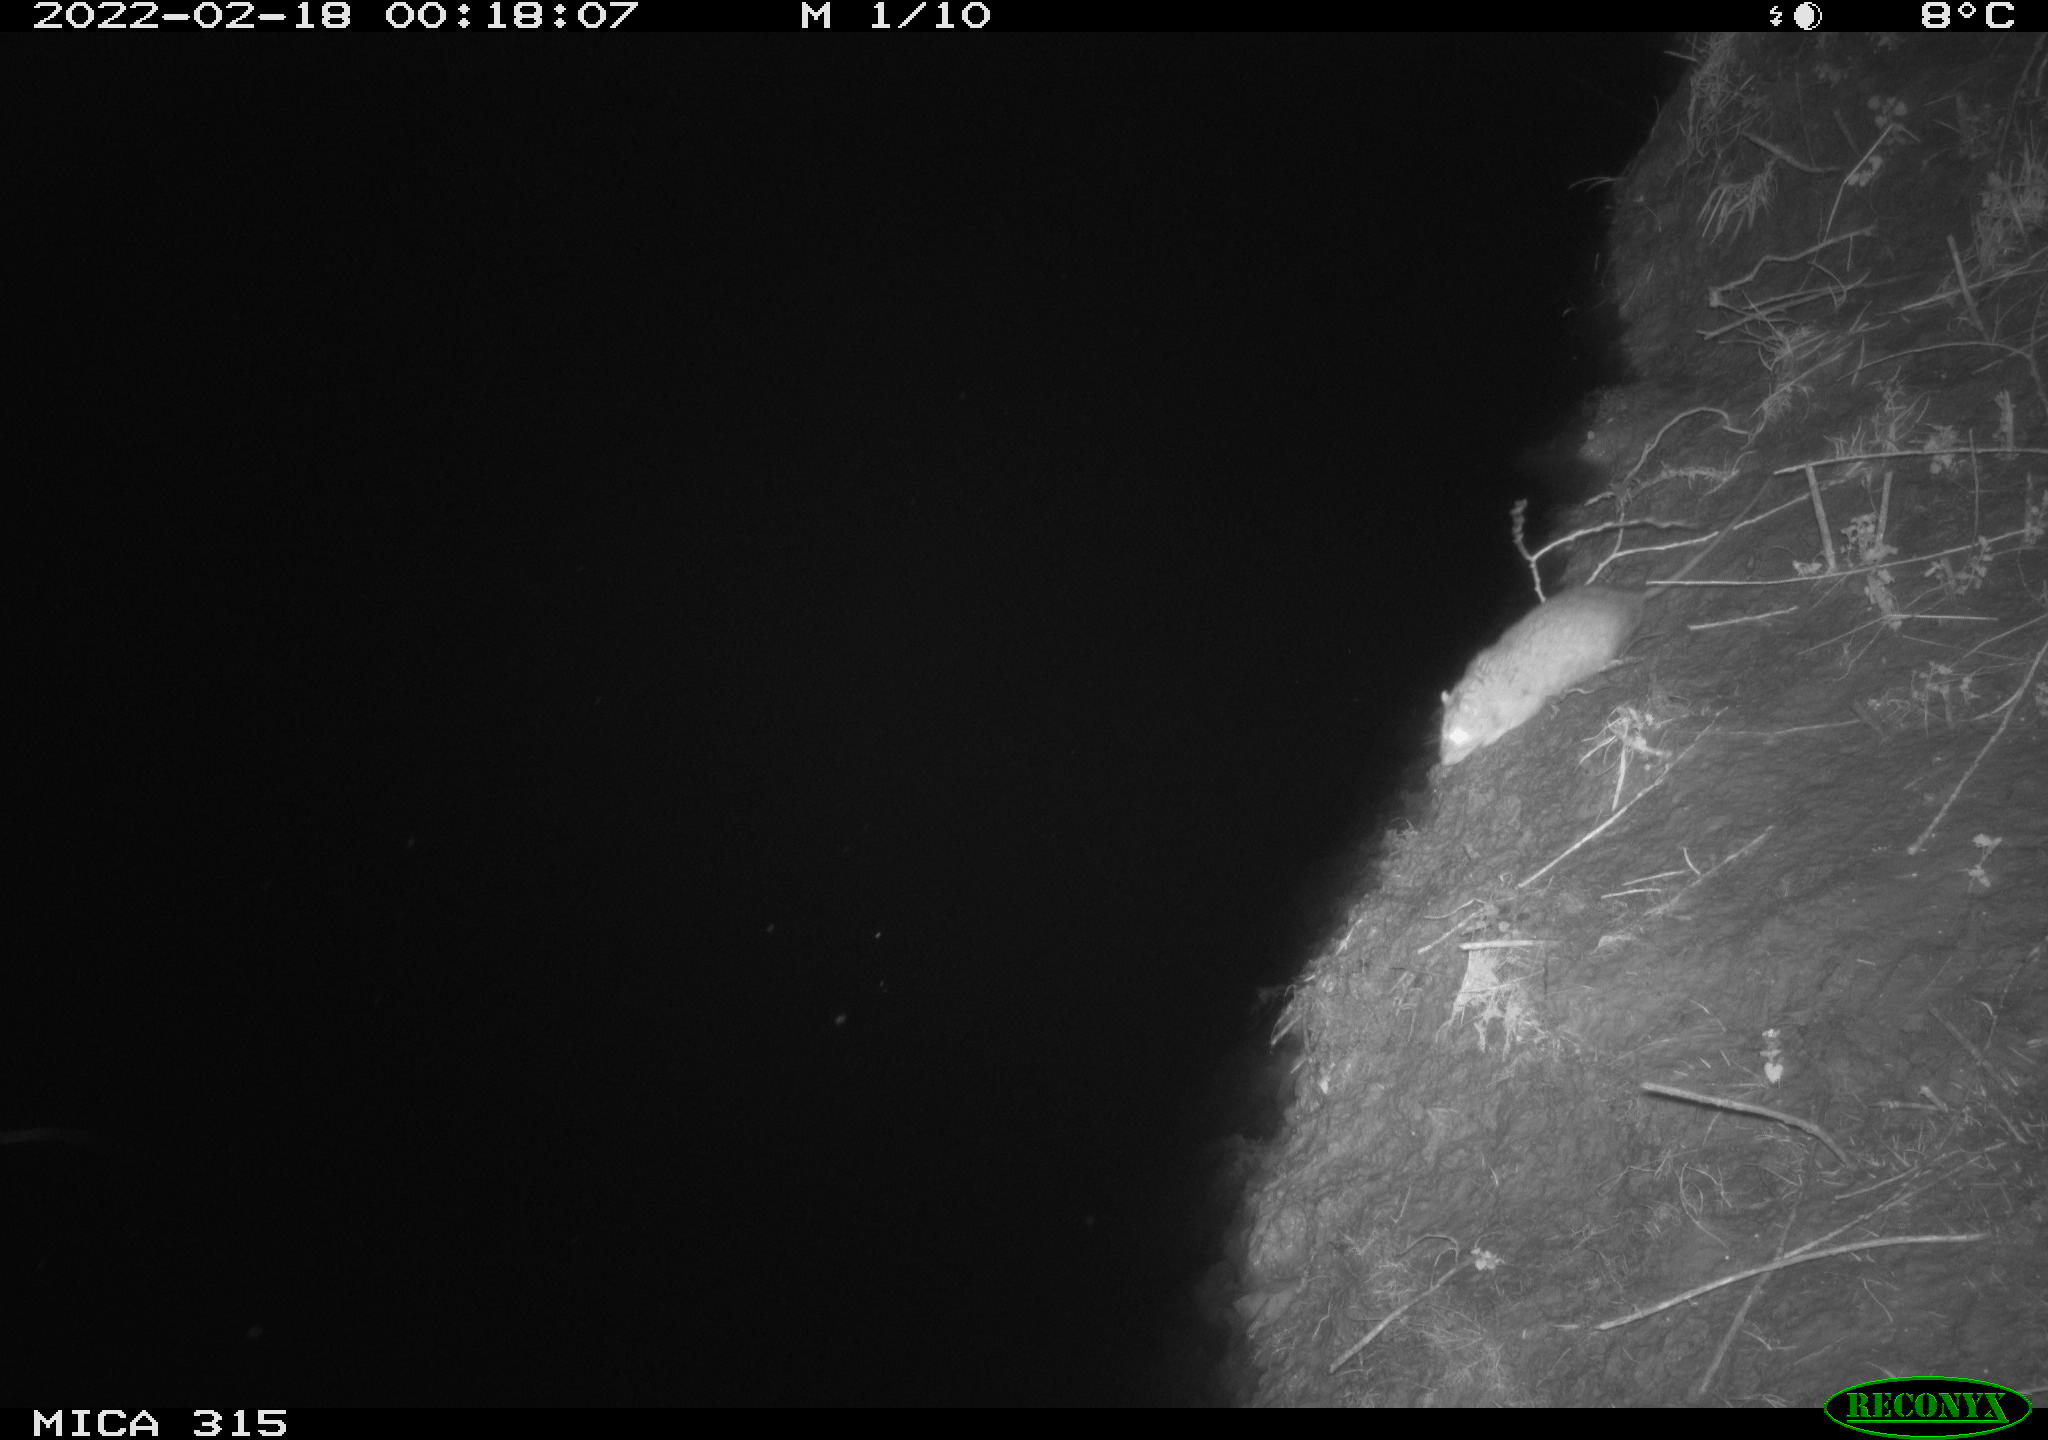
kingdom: Animalia
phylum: Chordata
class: Mammalia
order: Rodentia
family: Muridae
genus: Rattus
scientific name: Rattus norvegicus
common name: Brown rat
